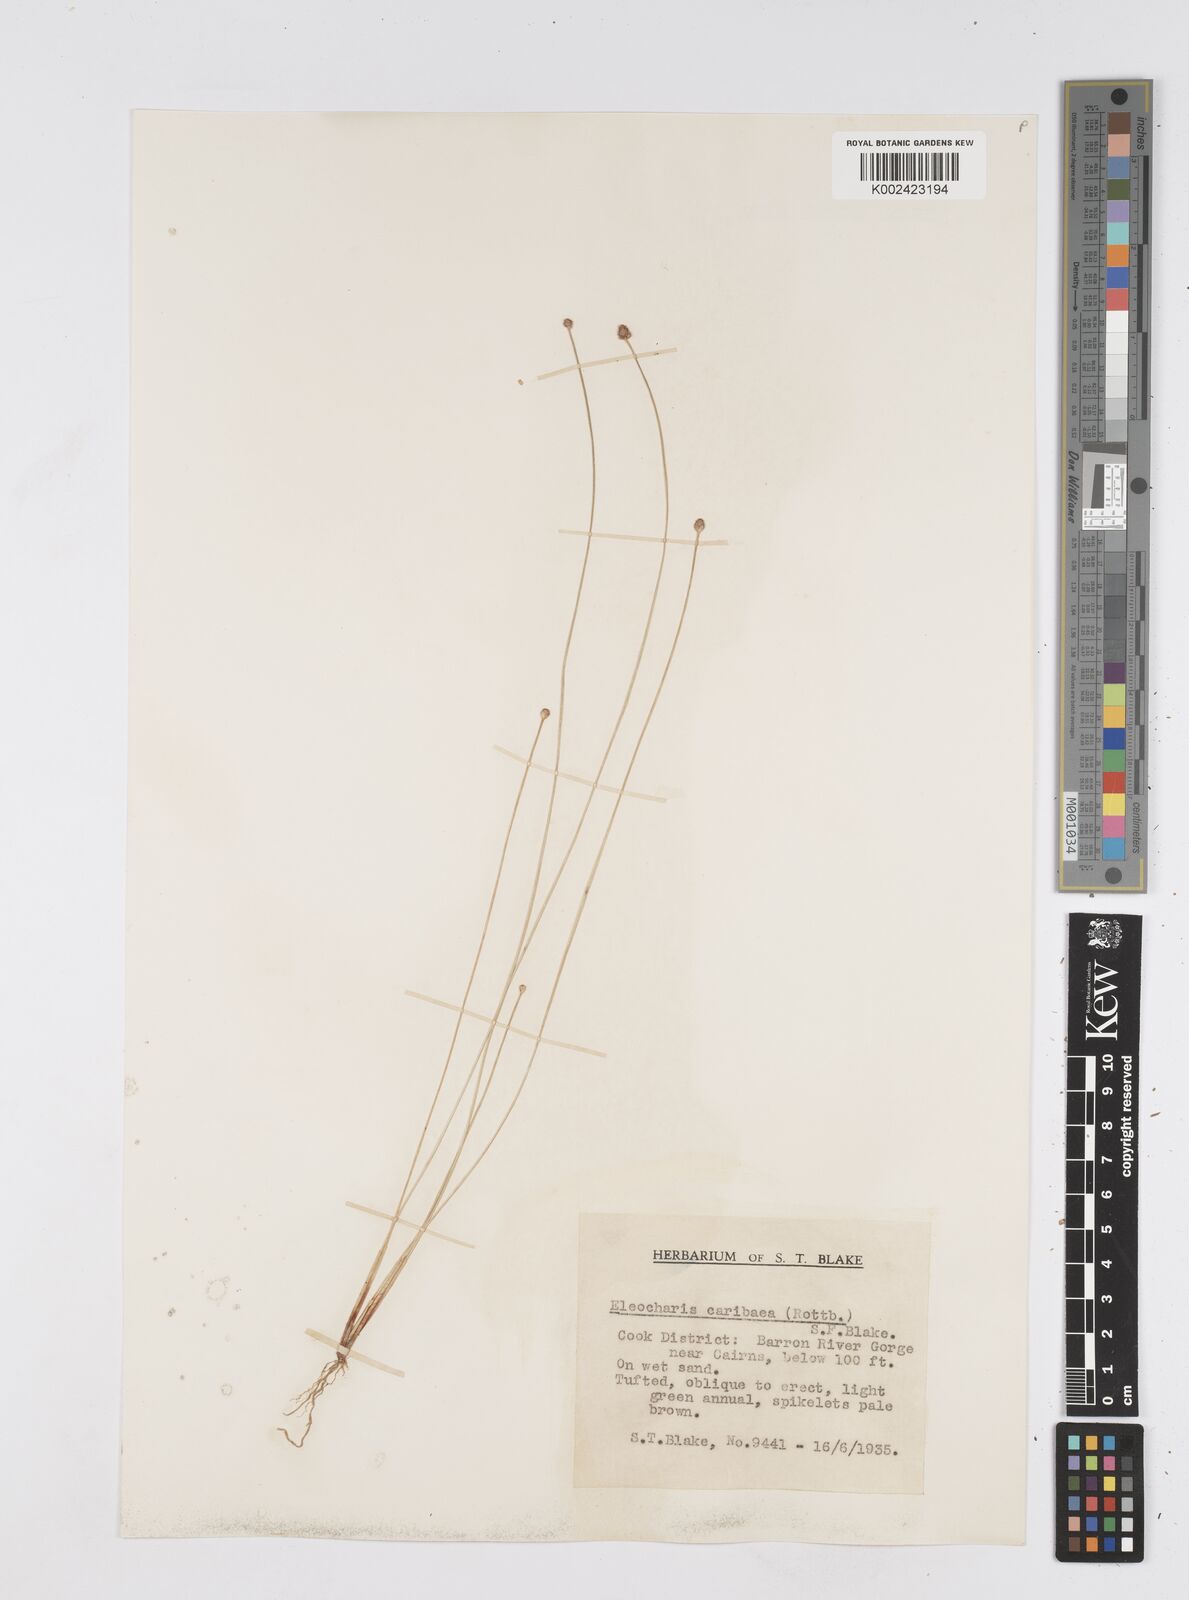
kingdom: Plantae
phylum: Tracheophyta
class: Liliopsida
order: Poales
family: Cyperaceae
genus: Eleocharis
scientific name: Eleocharis geniculata
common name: Canada spikesedge
